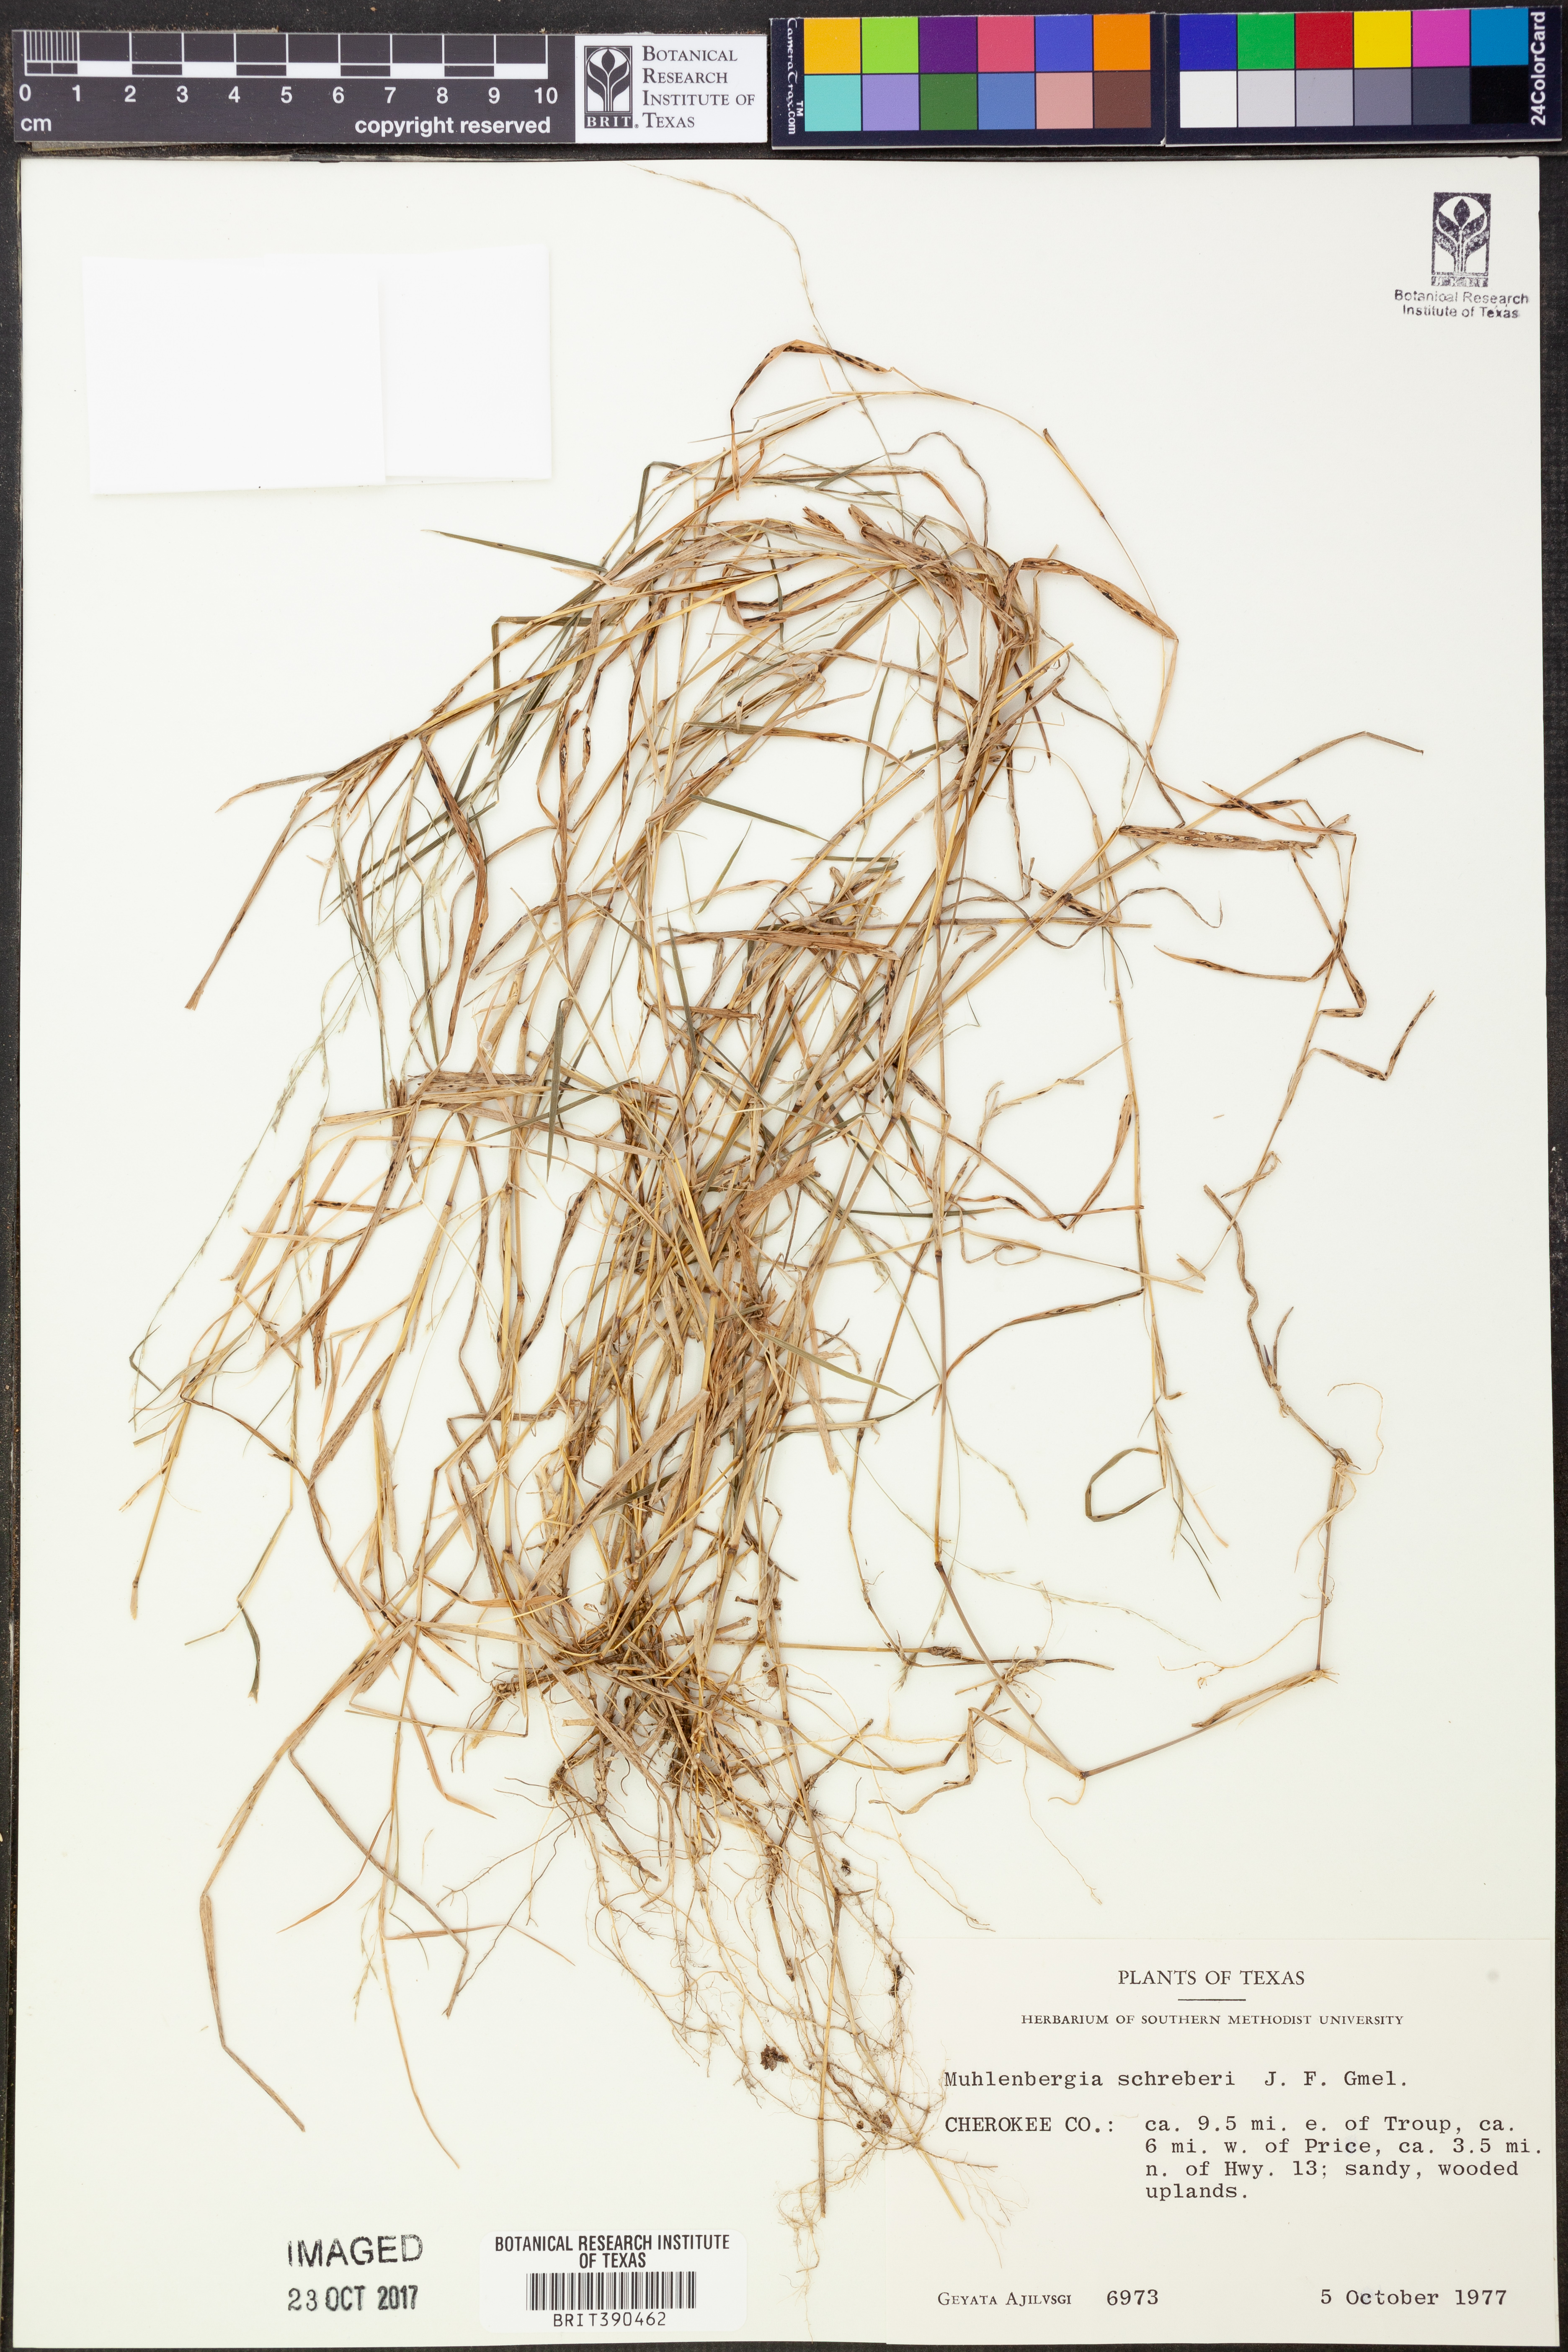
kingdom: Plantae
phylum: Tracheophyta
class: Liliopsida
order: Poales
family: Poaceae
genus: Muhlenbergia
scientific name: Muhlenbergia schreberi
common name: Nimblewill
